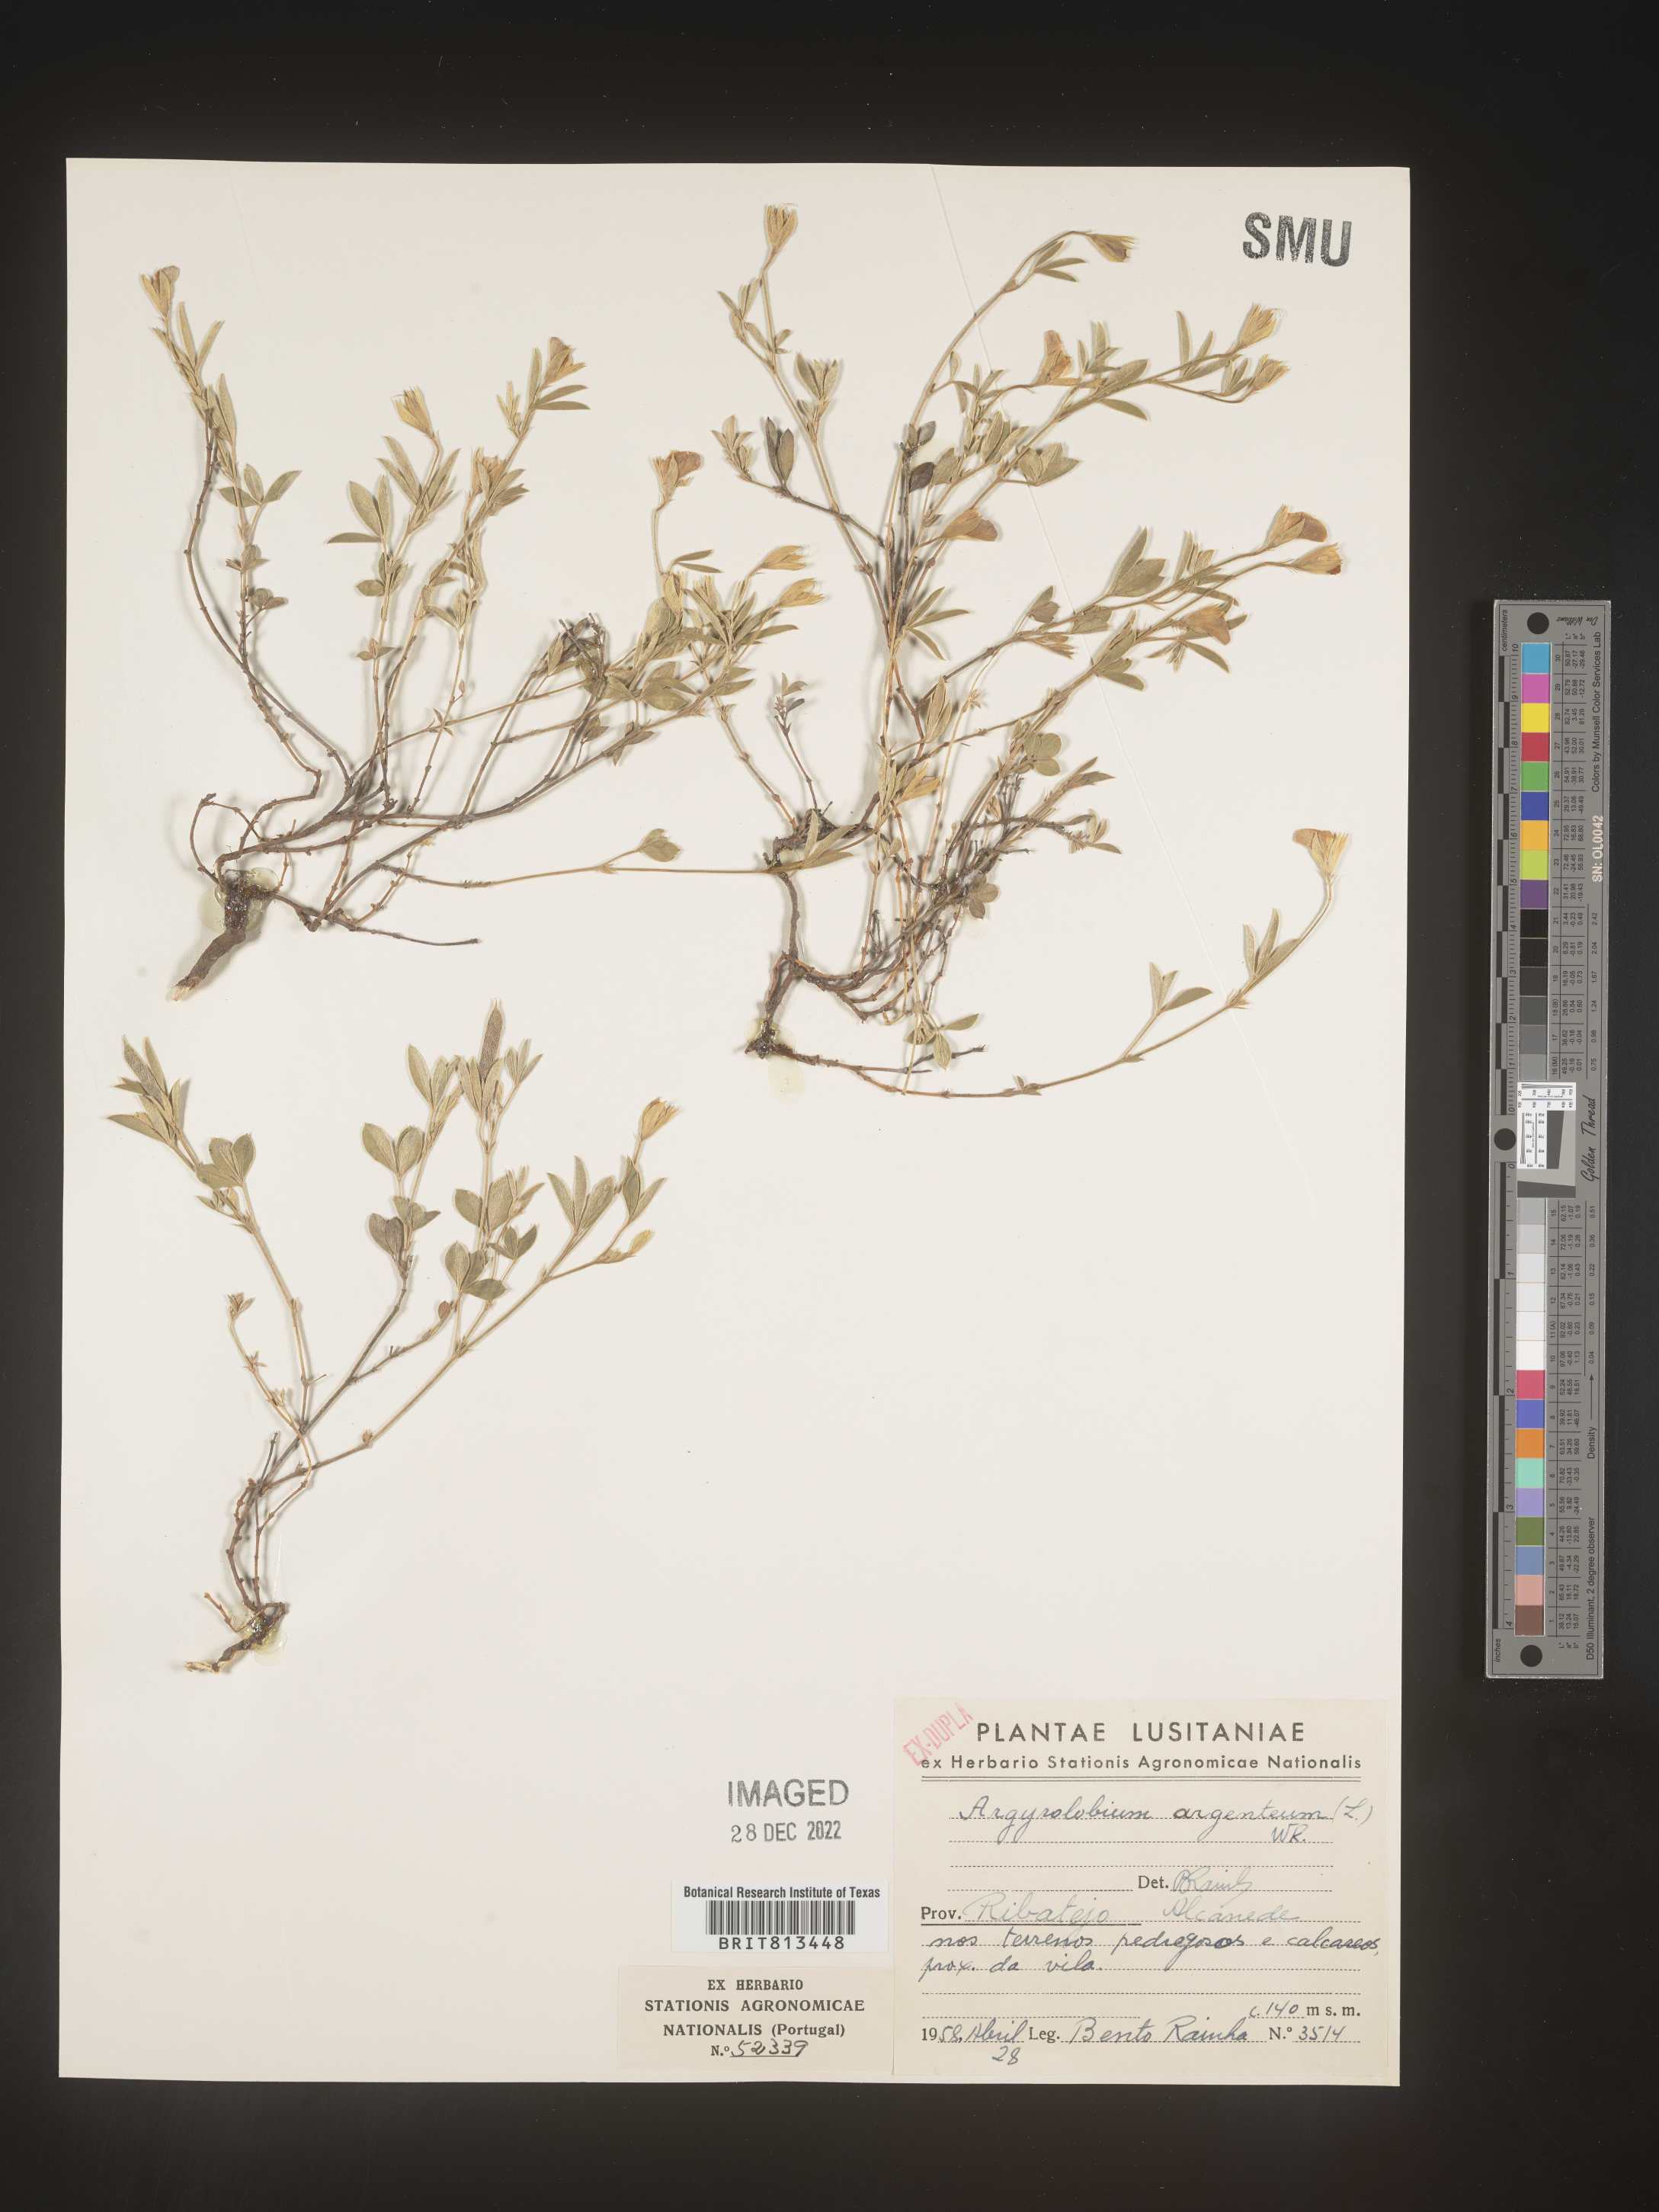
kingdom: Plantae
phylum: Tracheophyta
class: Magnoliopsida
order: Fabales
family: Fabaceae
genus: Argyrolobium
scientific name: Argyrolobium
